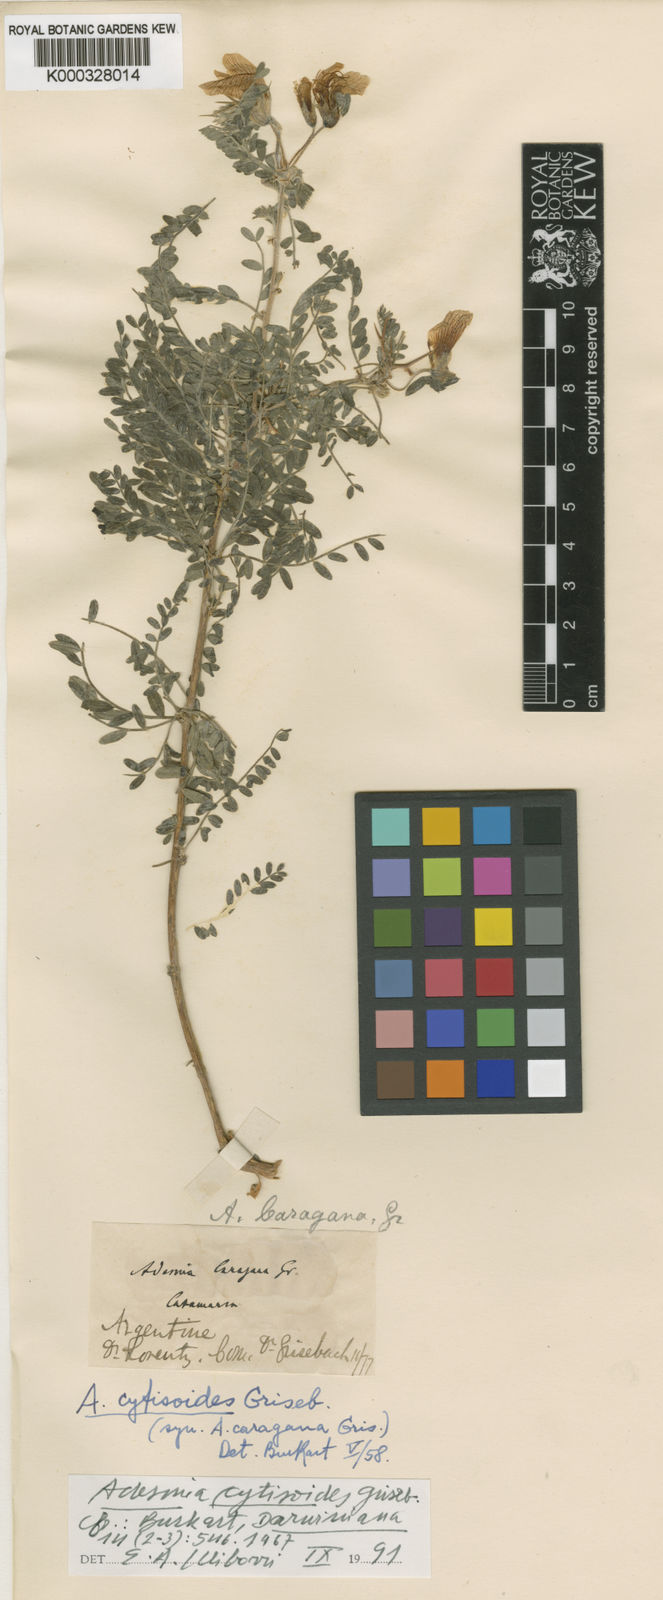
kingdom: Plantae
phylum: Tracheophyta
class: Magnoliopsida
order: Fabales
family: Fabaceae
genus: Adesmia
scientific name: Adesmia cytisoides
